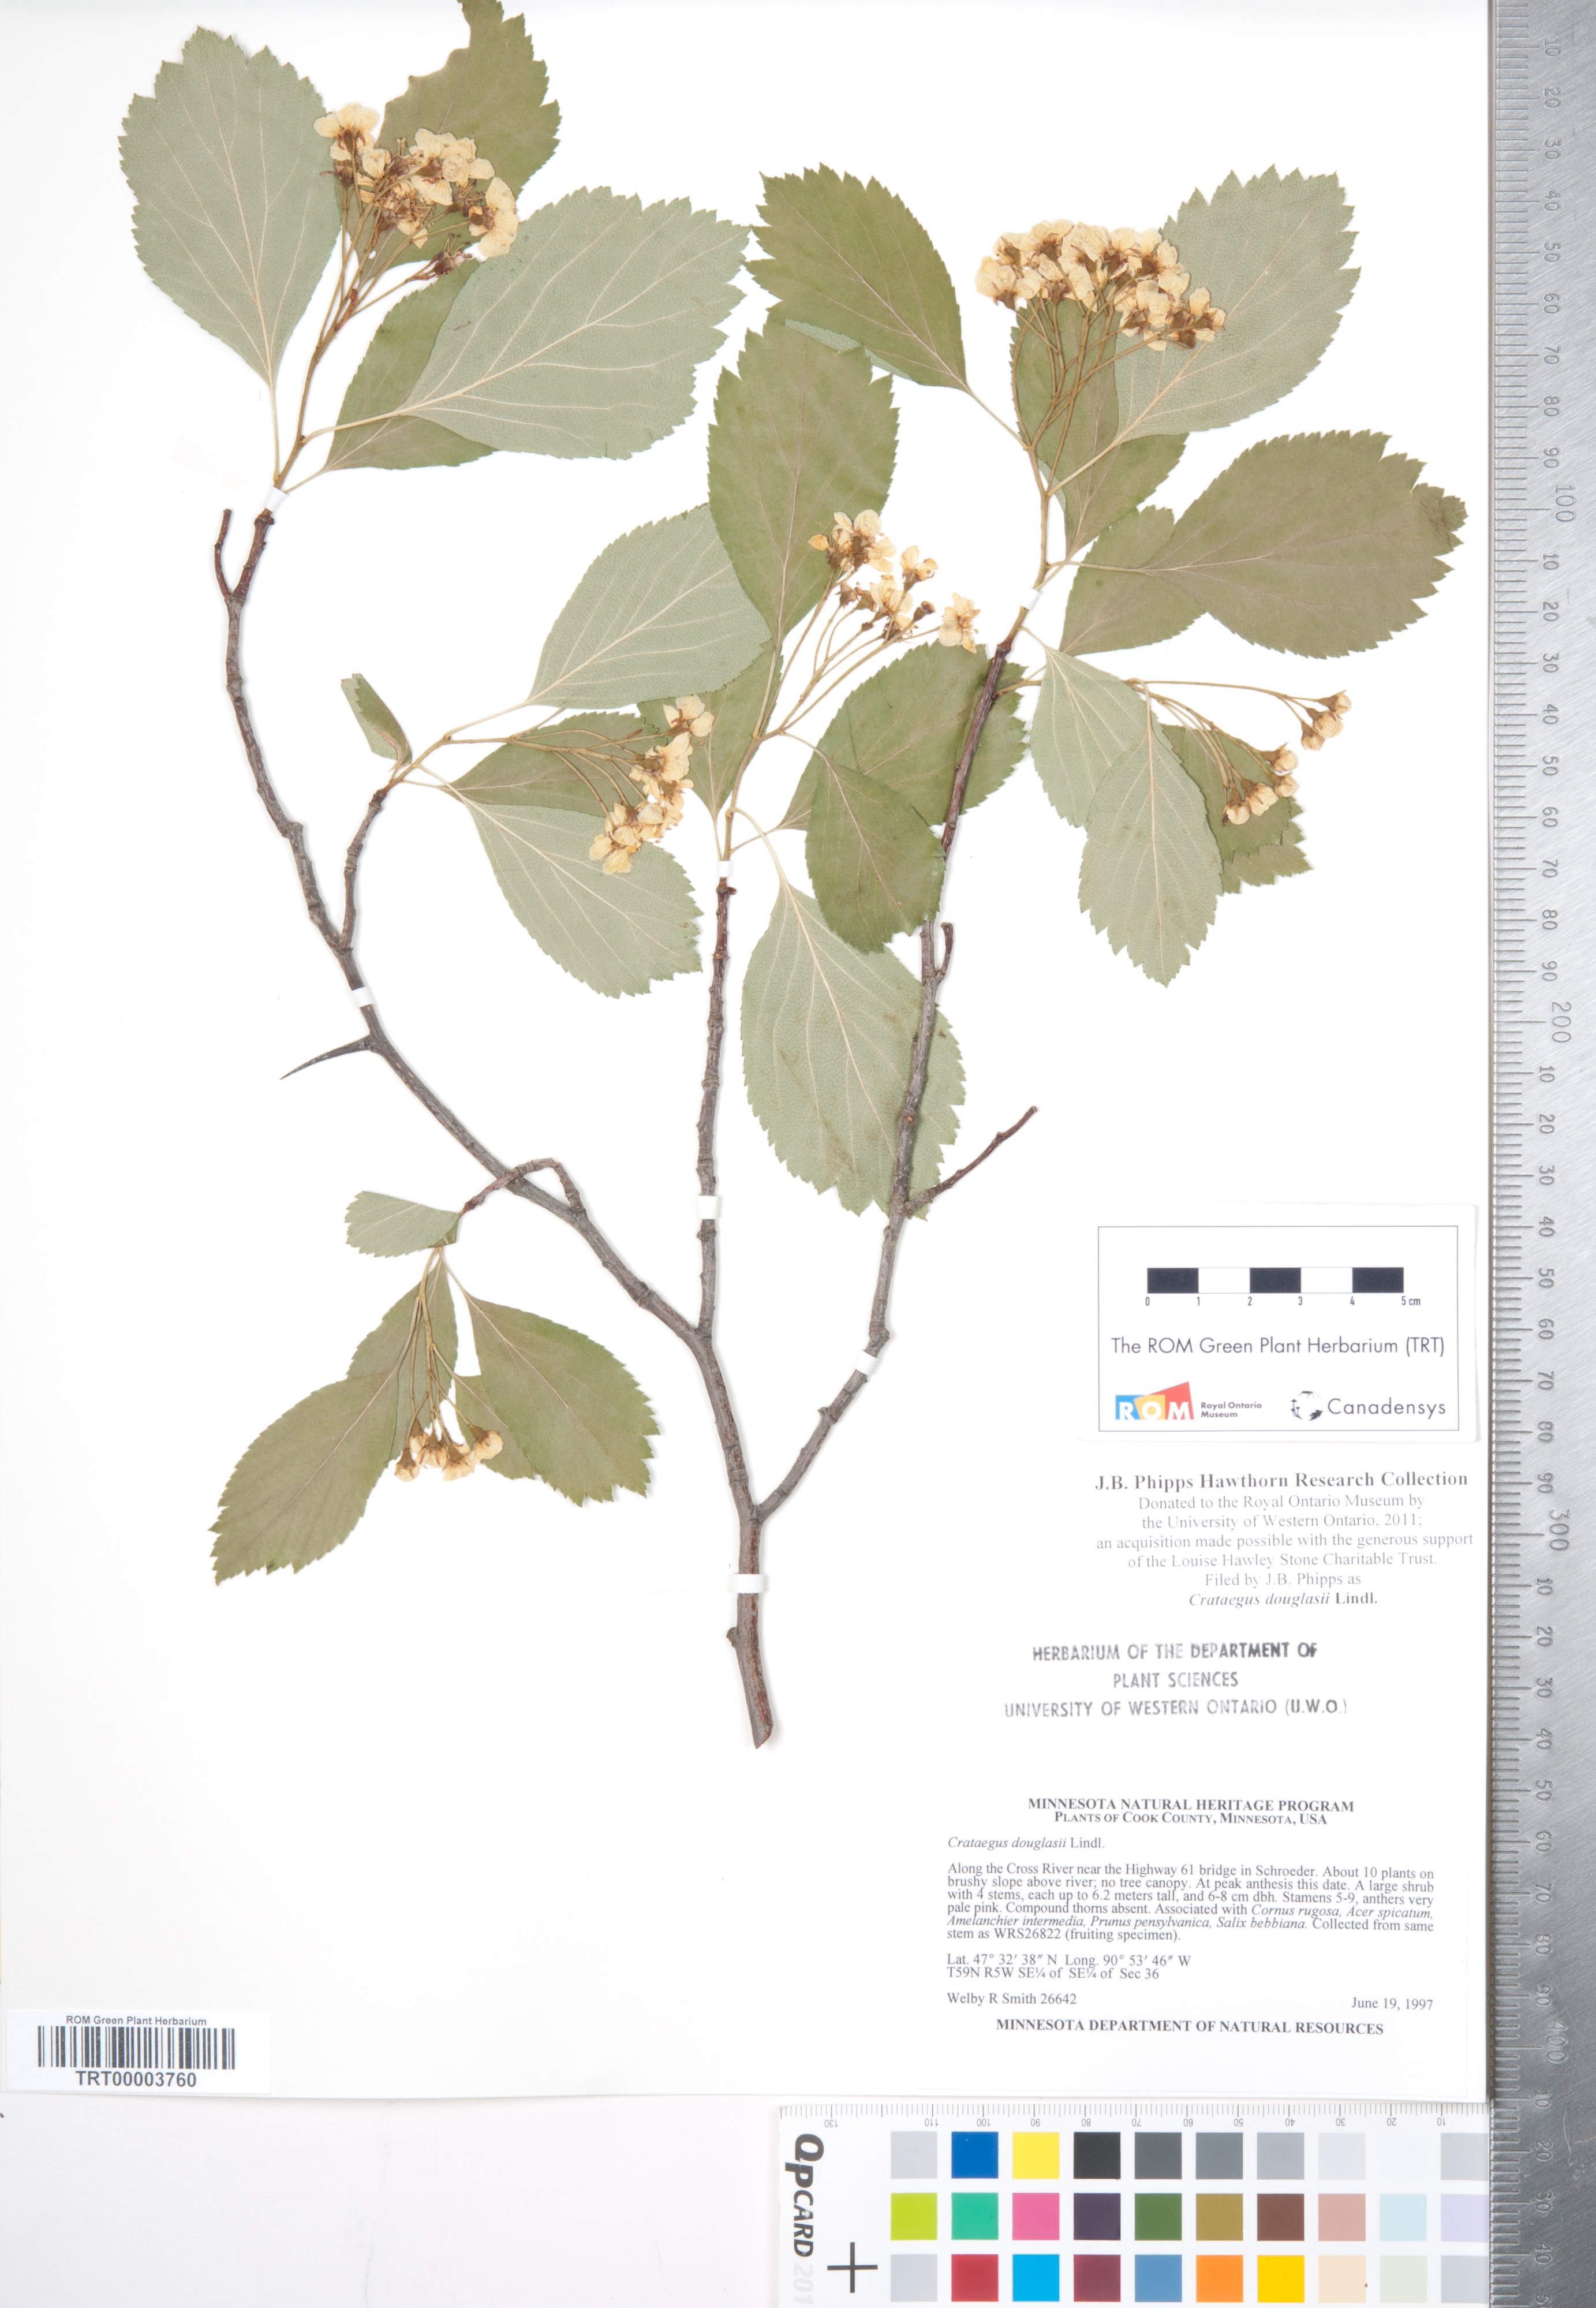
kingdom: Plantae
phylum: Tracheophyta
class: Magnoliopsida
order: Rosales
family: Rosaceae
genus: Crataegus
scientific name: Crataegus douglasii
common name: Black hawthorn
